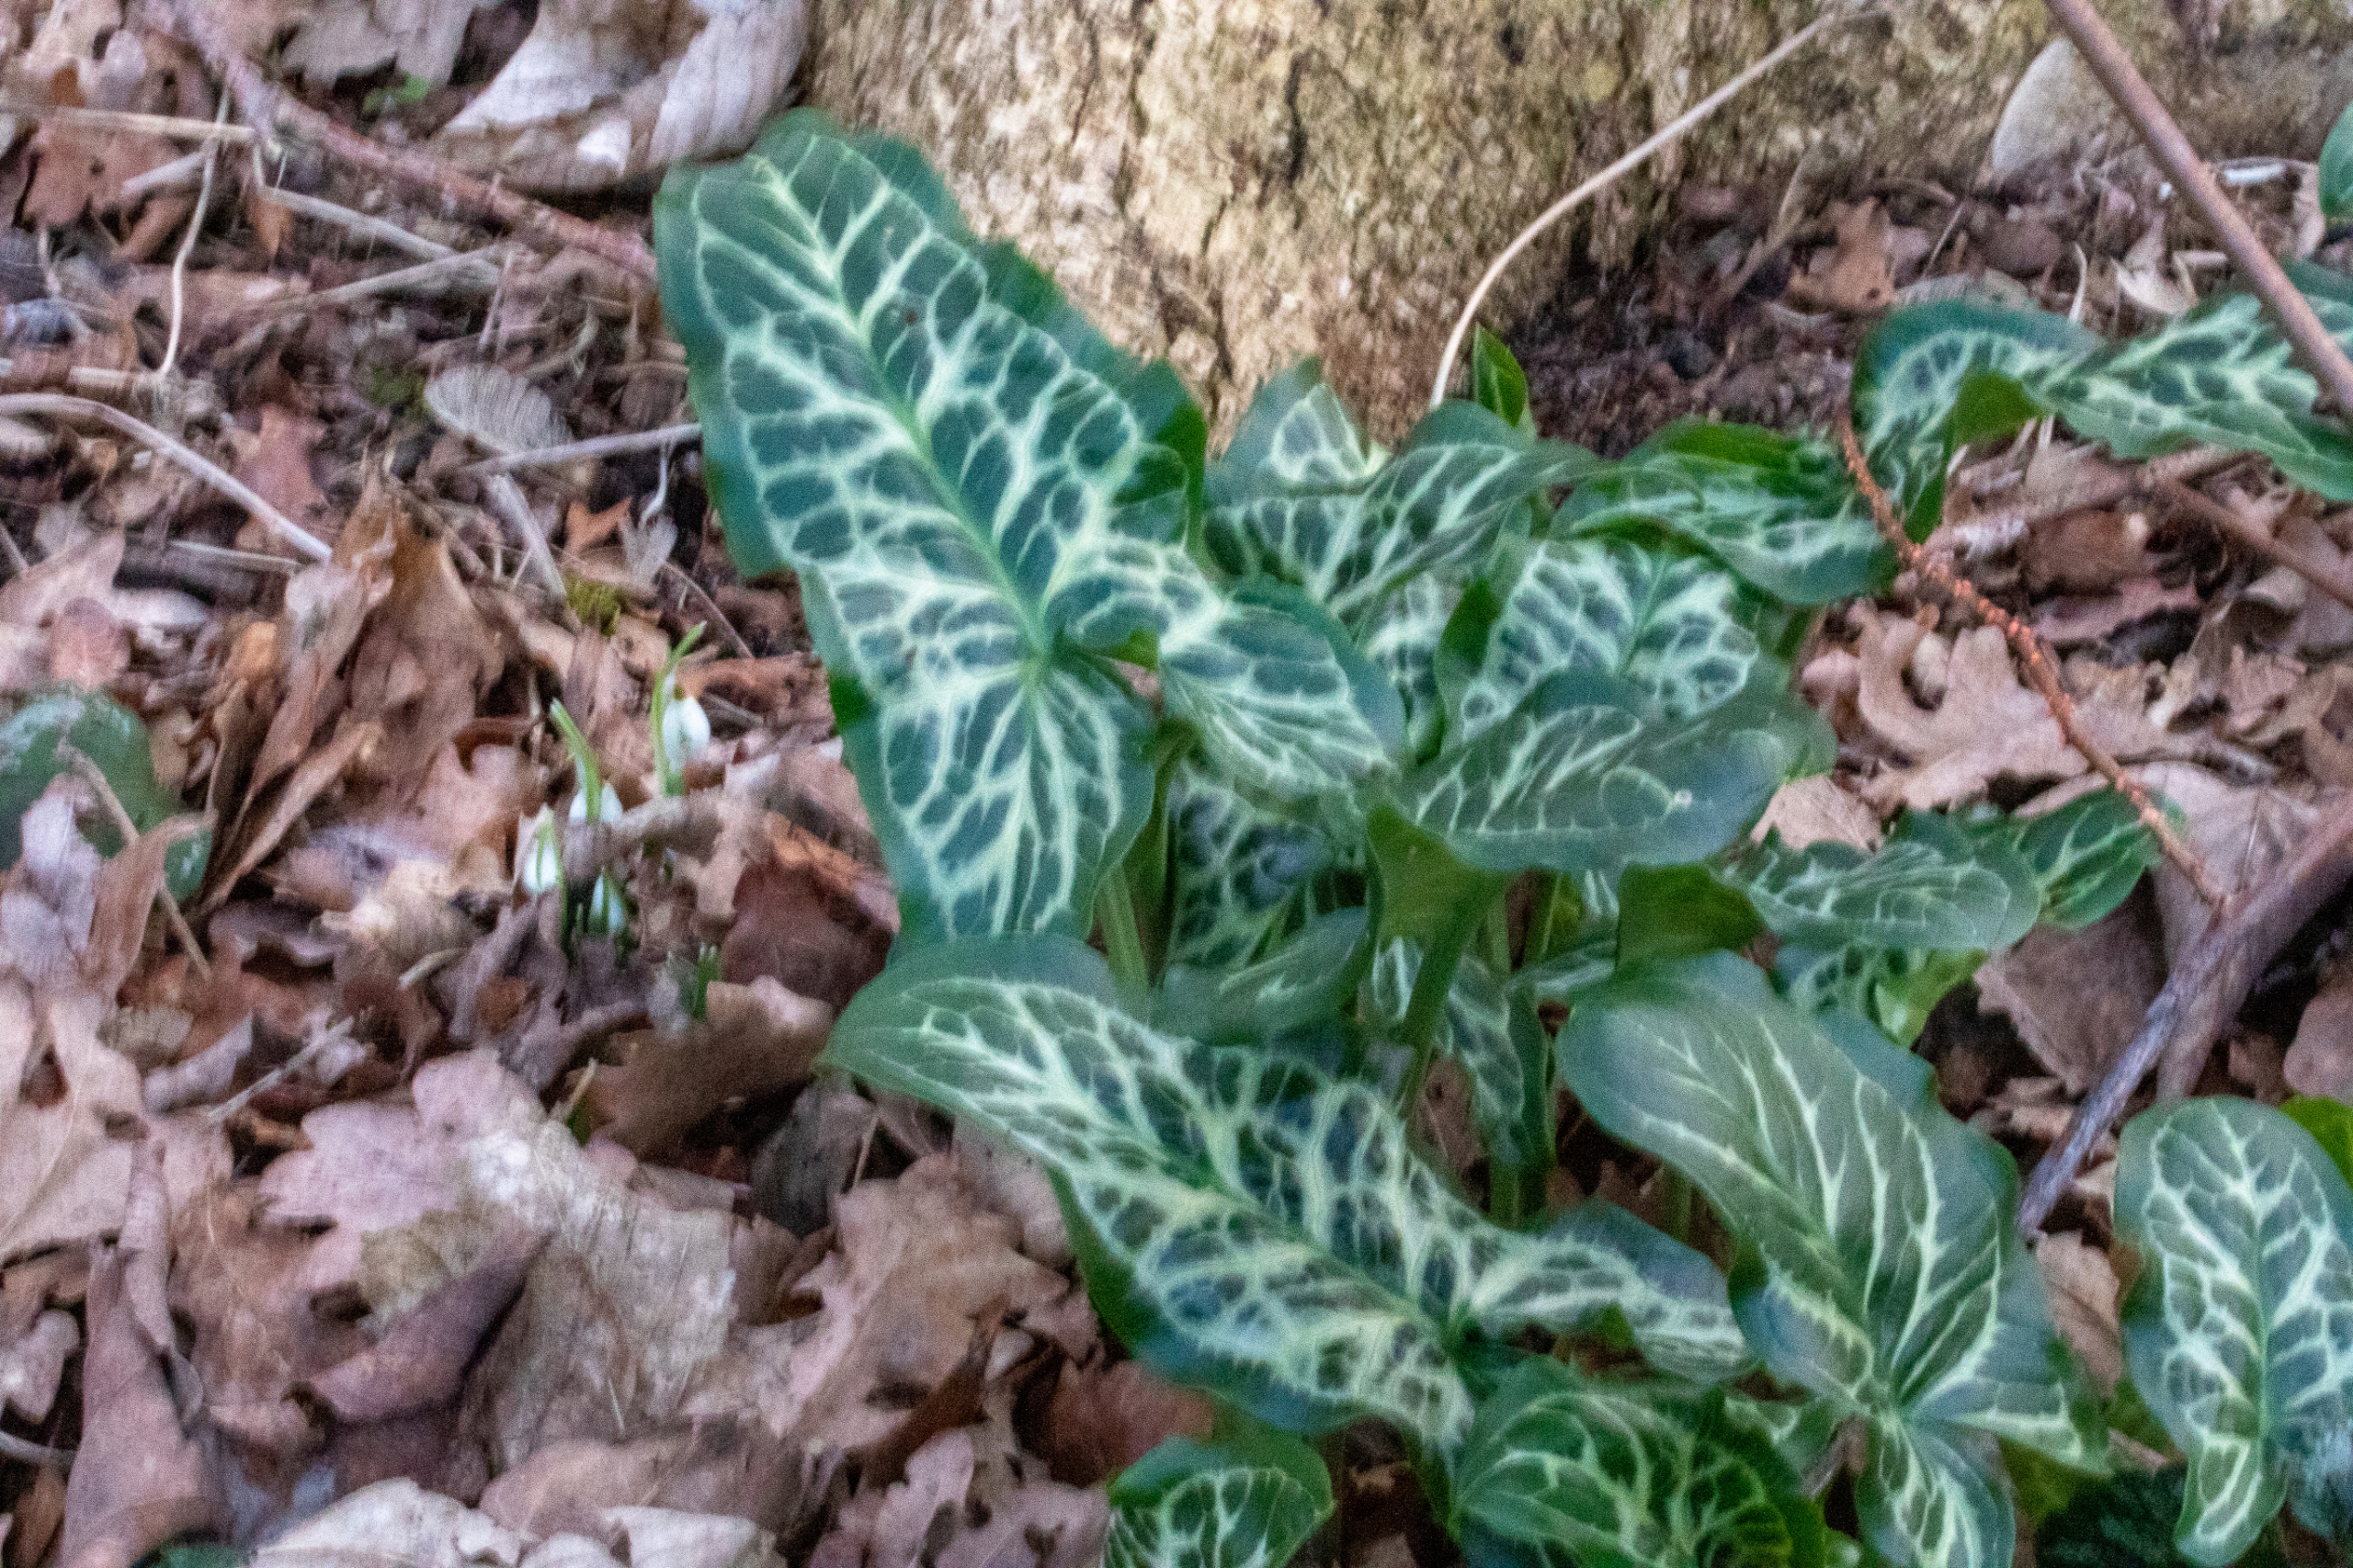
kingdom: Plantae
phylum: Tracheophyta
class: Liliopsida
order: Alismatales
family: Araceae
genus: Arum
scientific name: Arum italicum
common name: Italiensk arum
